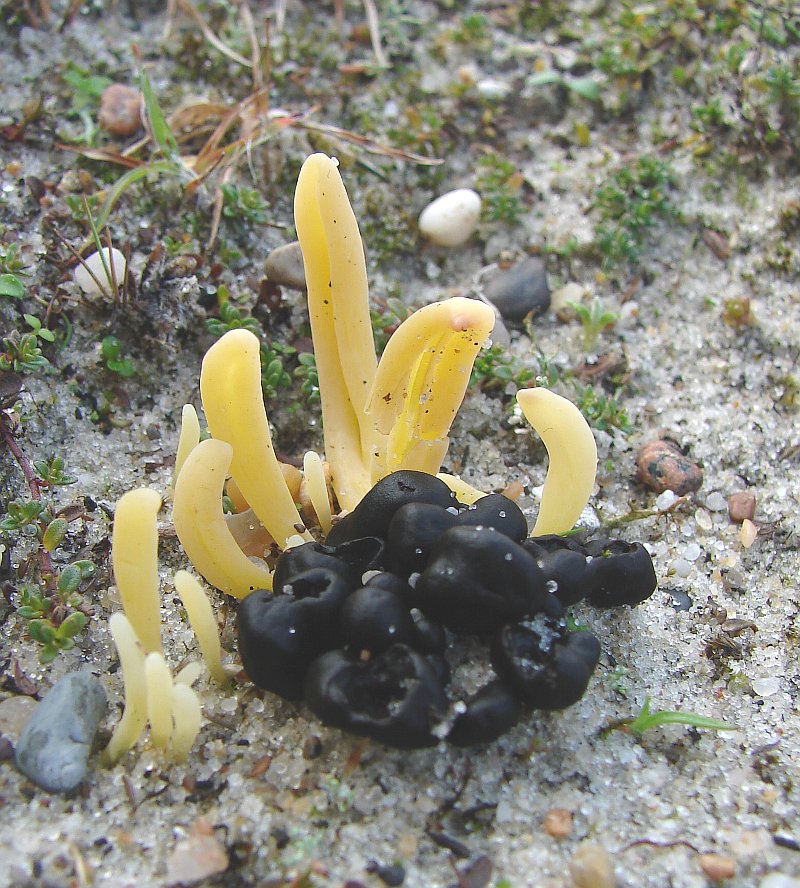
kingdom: Fungi
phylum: Ascomycota
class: Geoglossomycetes
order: Geoglossales
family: Geoglossaceae
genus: Sabuloglossum
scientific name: Sabuloglossum arenarium
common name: klit-jordtunge
